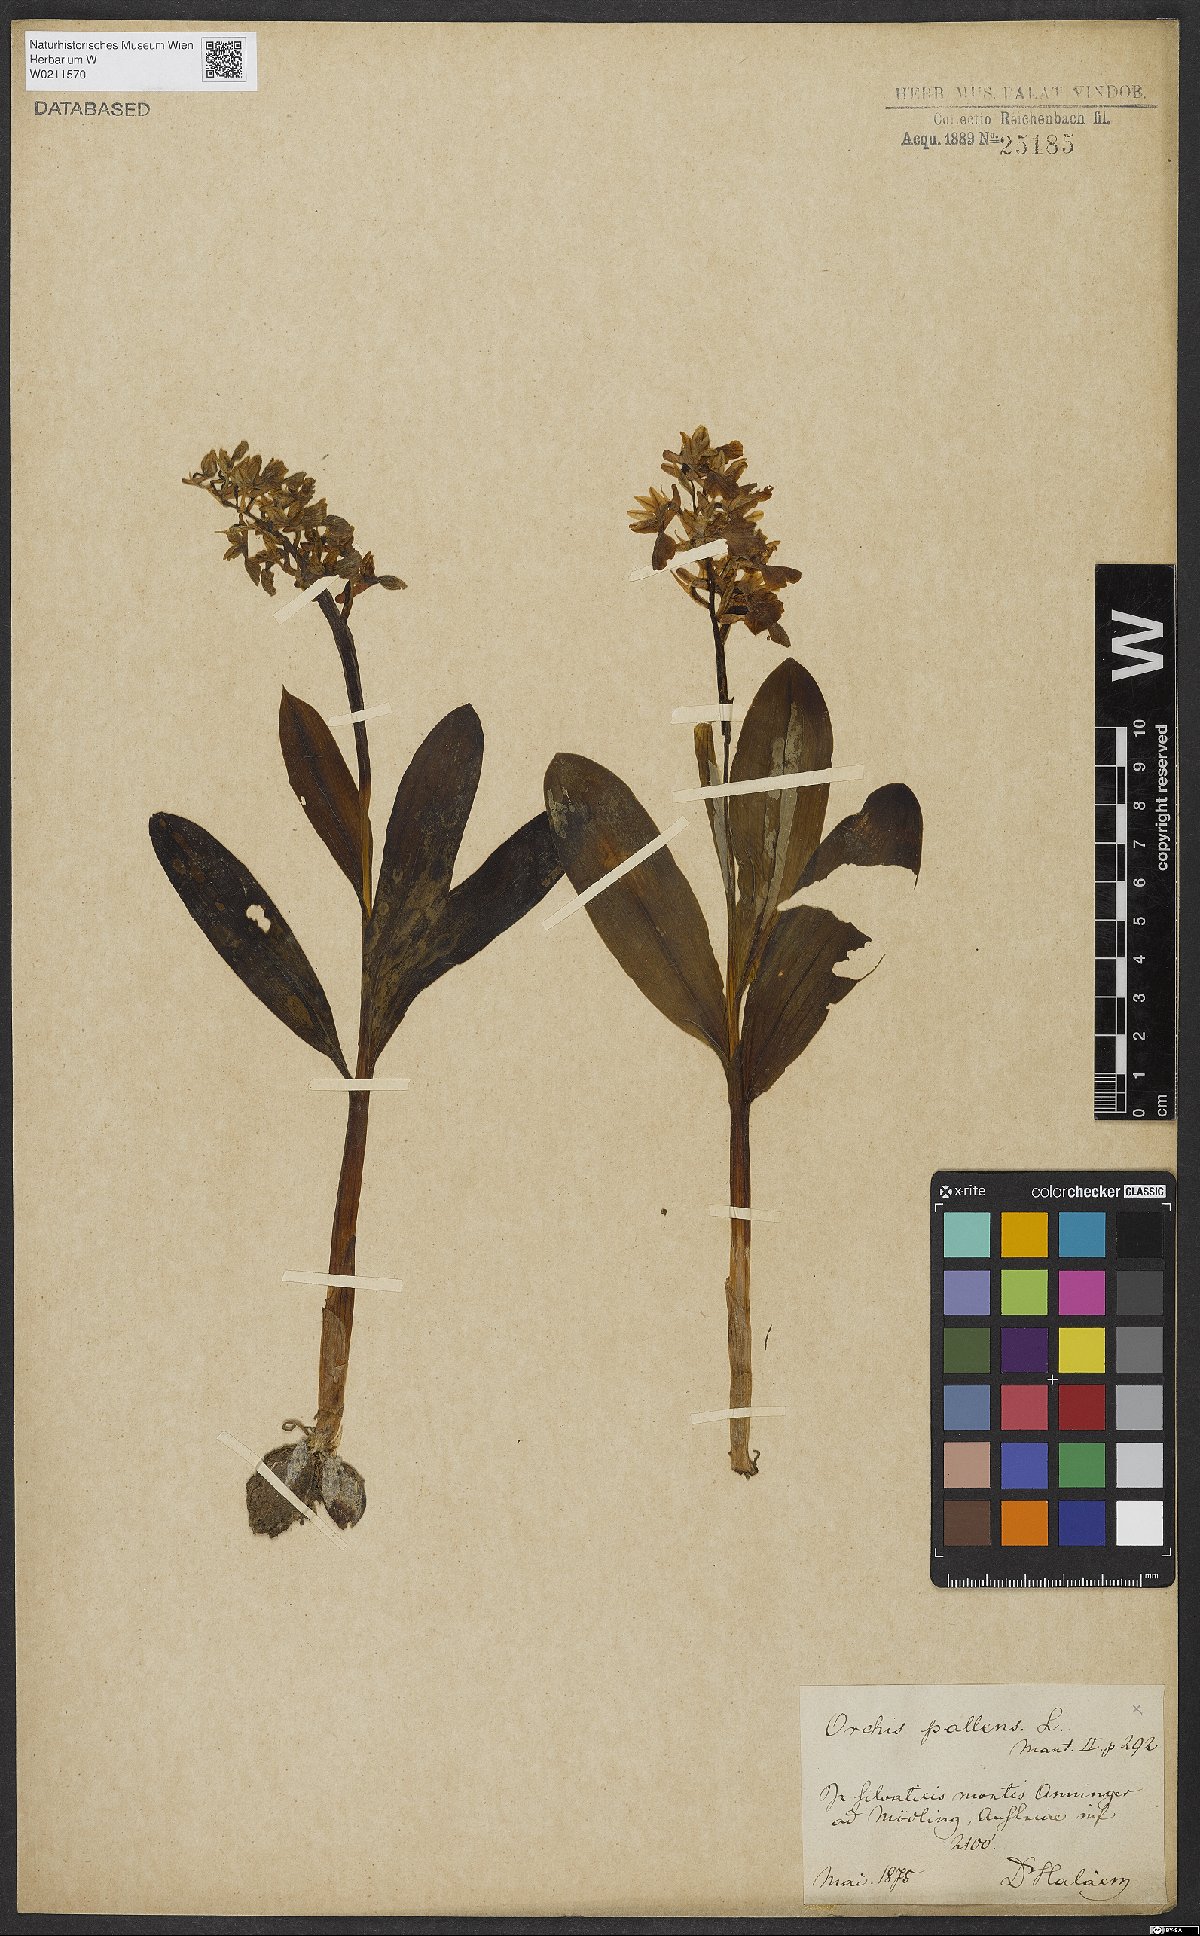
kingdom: Plantae
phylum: Tracheophyta
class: Liliopsida
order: Asparagales
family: Orchidaceae
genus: Orchis
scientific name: Orchis pallens
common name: Pale-flowered orchid
